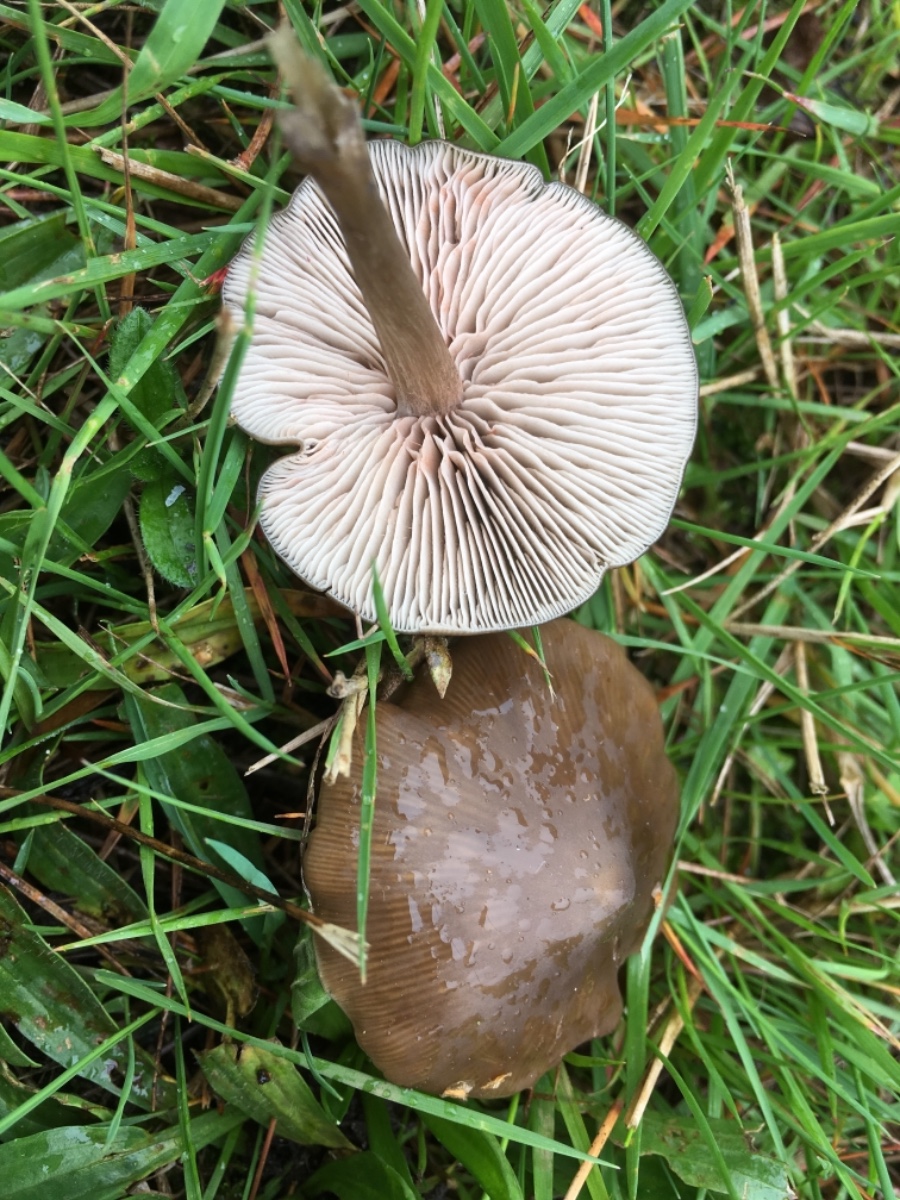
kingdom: Fungi
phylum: Basidiomycota
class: Agaricomycetes
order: Agaricales
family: Entolomataceae
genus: Entoloma
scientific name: Entoloma
